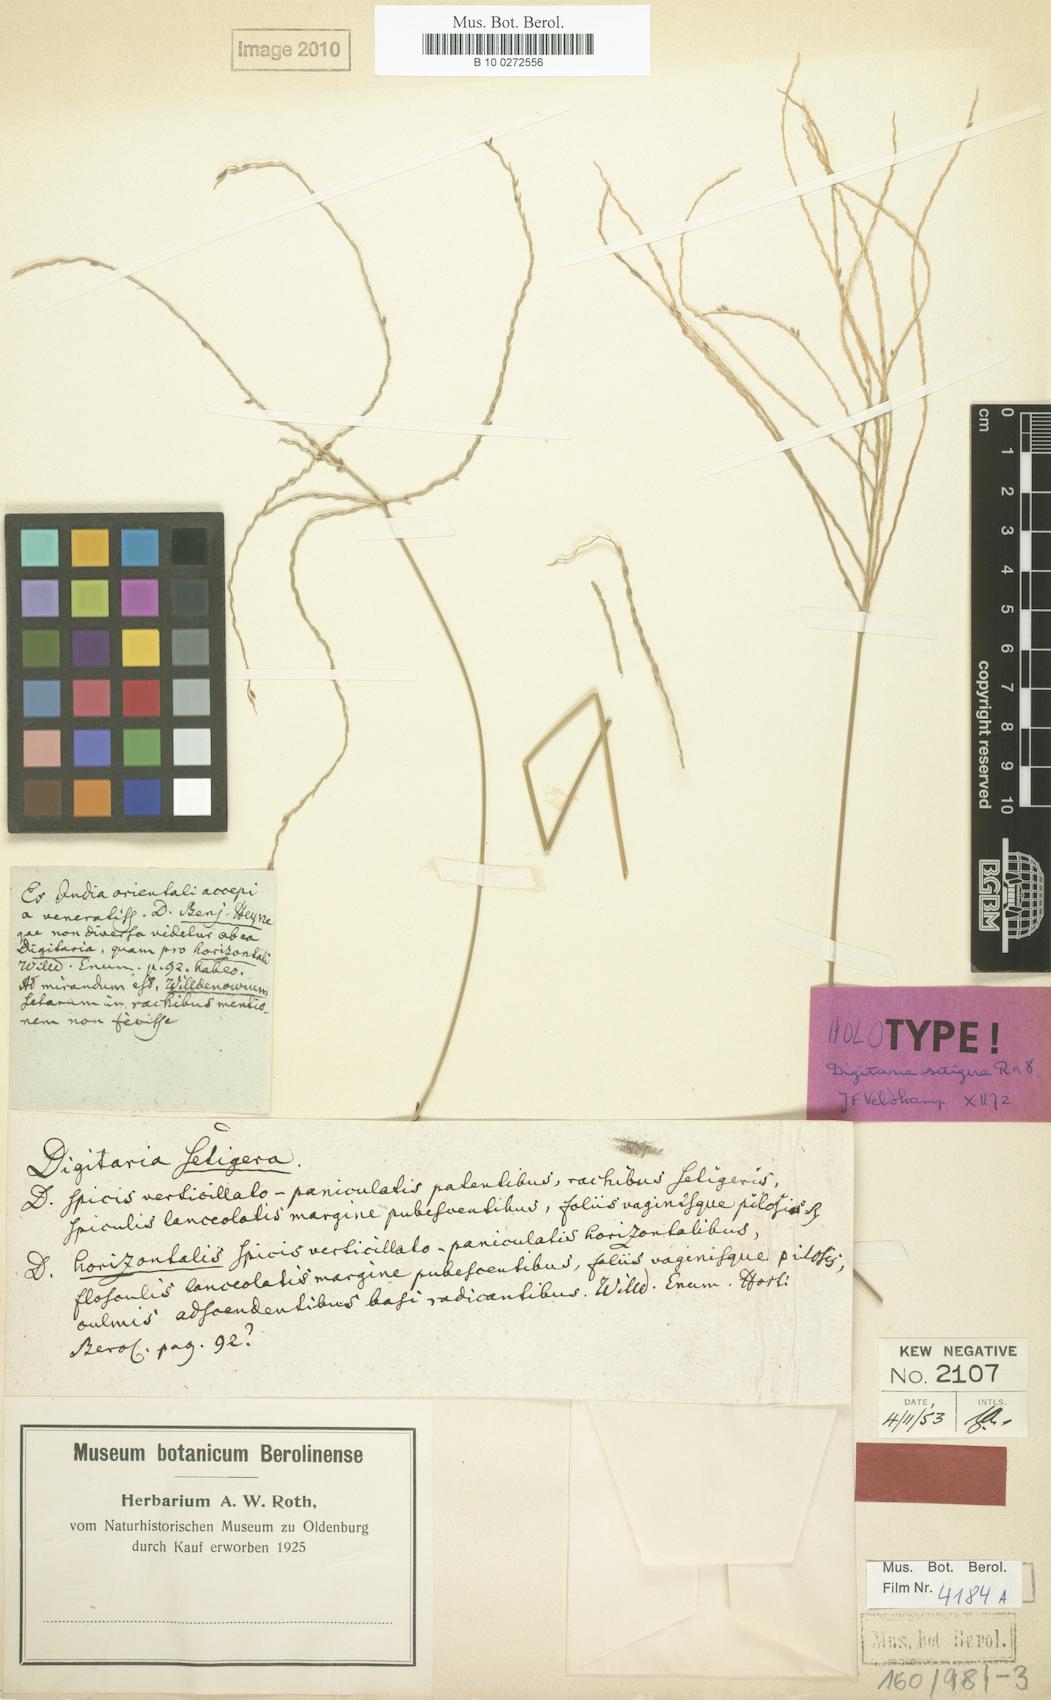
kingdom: Plantae
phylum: Tracheophyta
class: Liliopsida
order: Poales
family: Poaceae
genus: Digitaria
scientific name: Digitaria setigera
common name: East indian crabgrass
